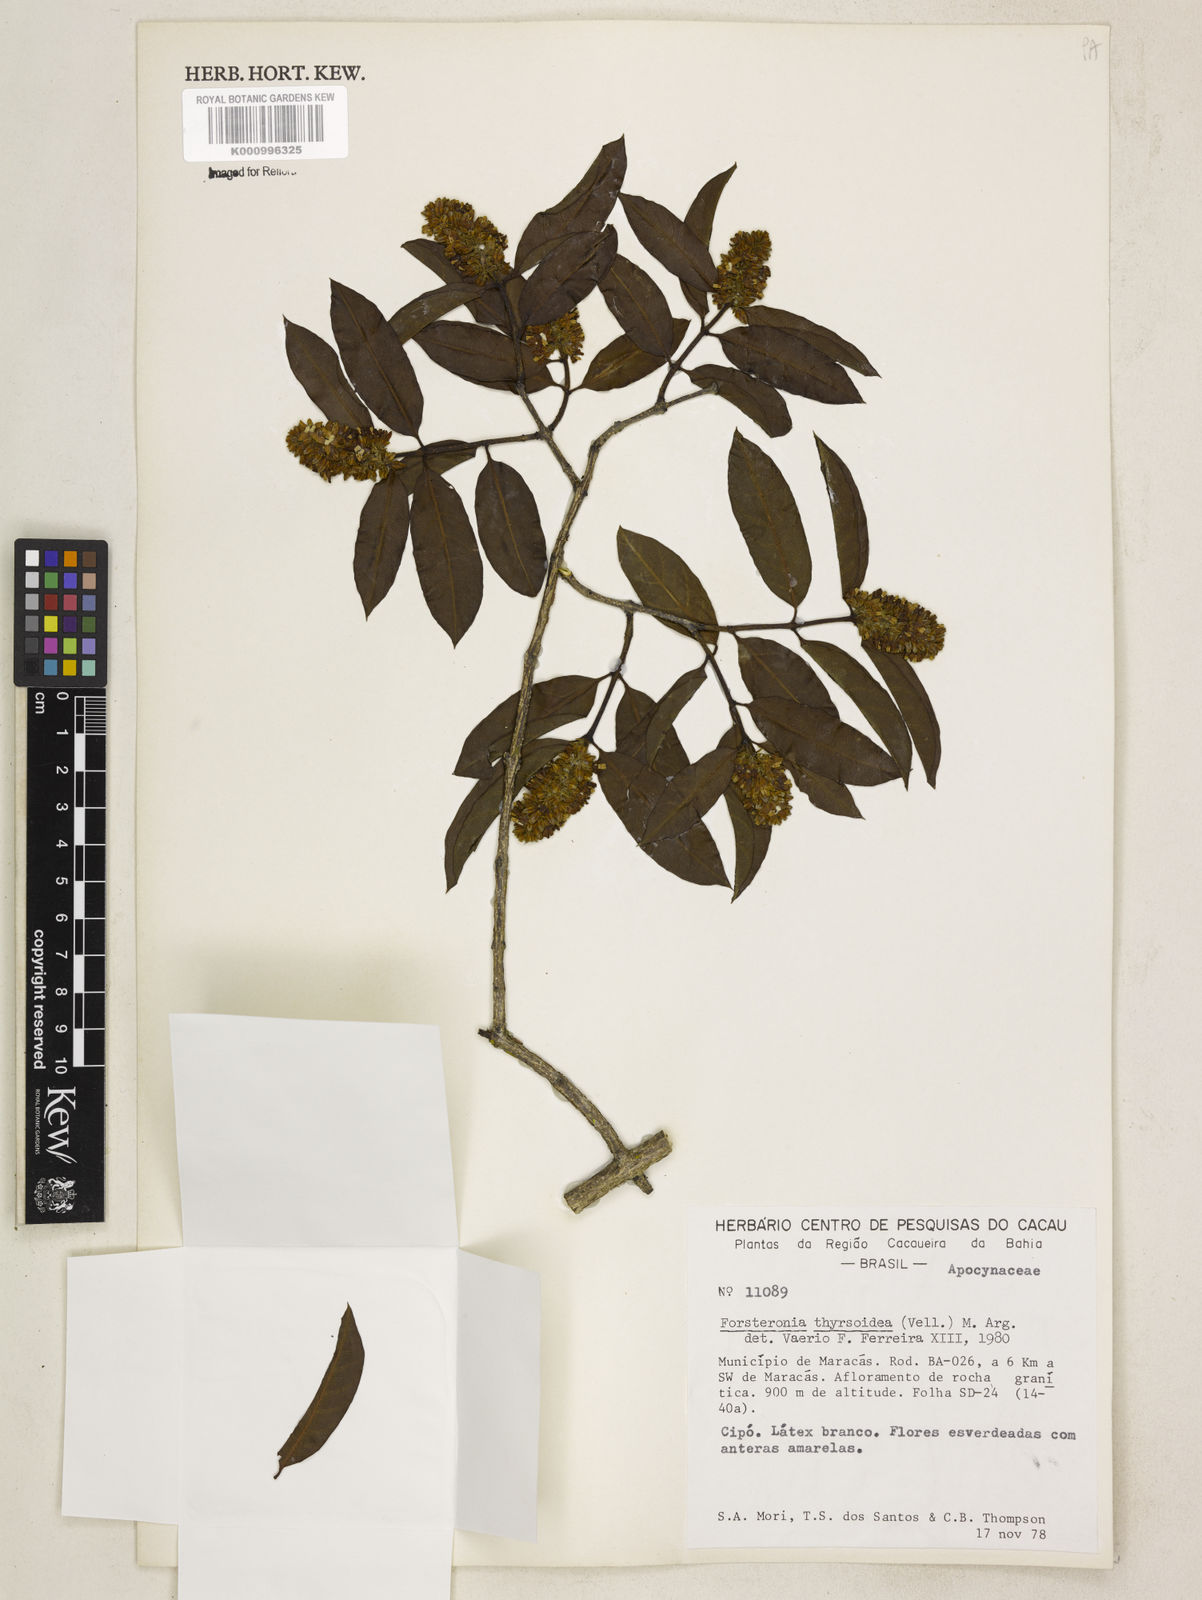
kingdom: Plantae
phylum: Tracheophyta
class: Magnoliopsida
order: Gentianales
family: Apocynaceae
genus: Forsteronia
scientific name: Forsteronia
